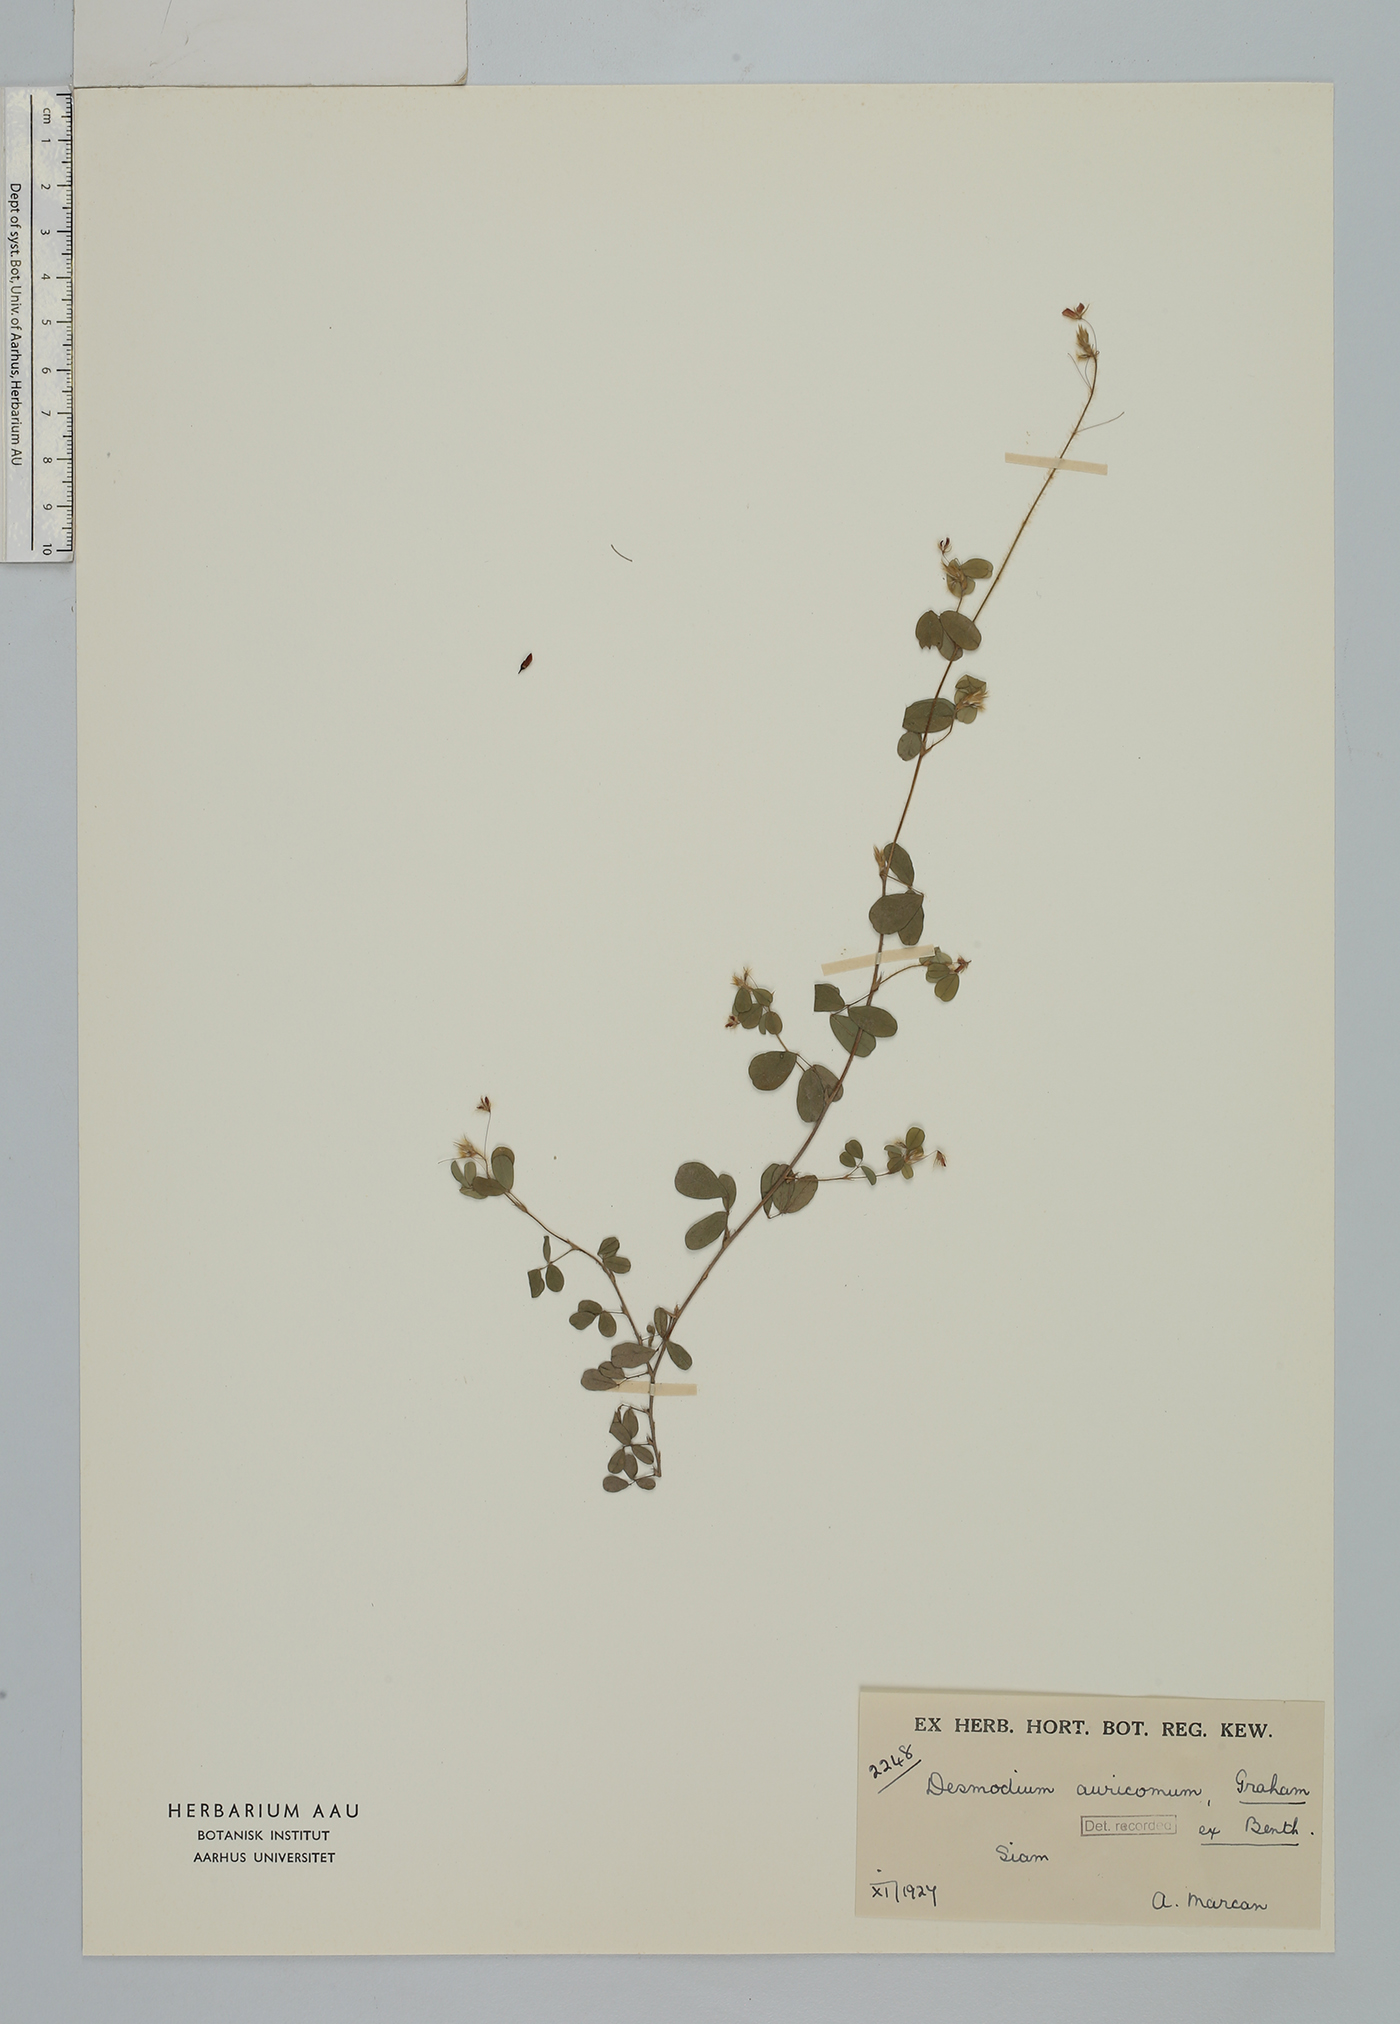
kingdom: Plantae
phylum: Tracheophyta
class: Magnoliopsida
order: Fabales
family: Fabaceae
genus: Grona
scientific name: Grona auricoma
